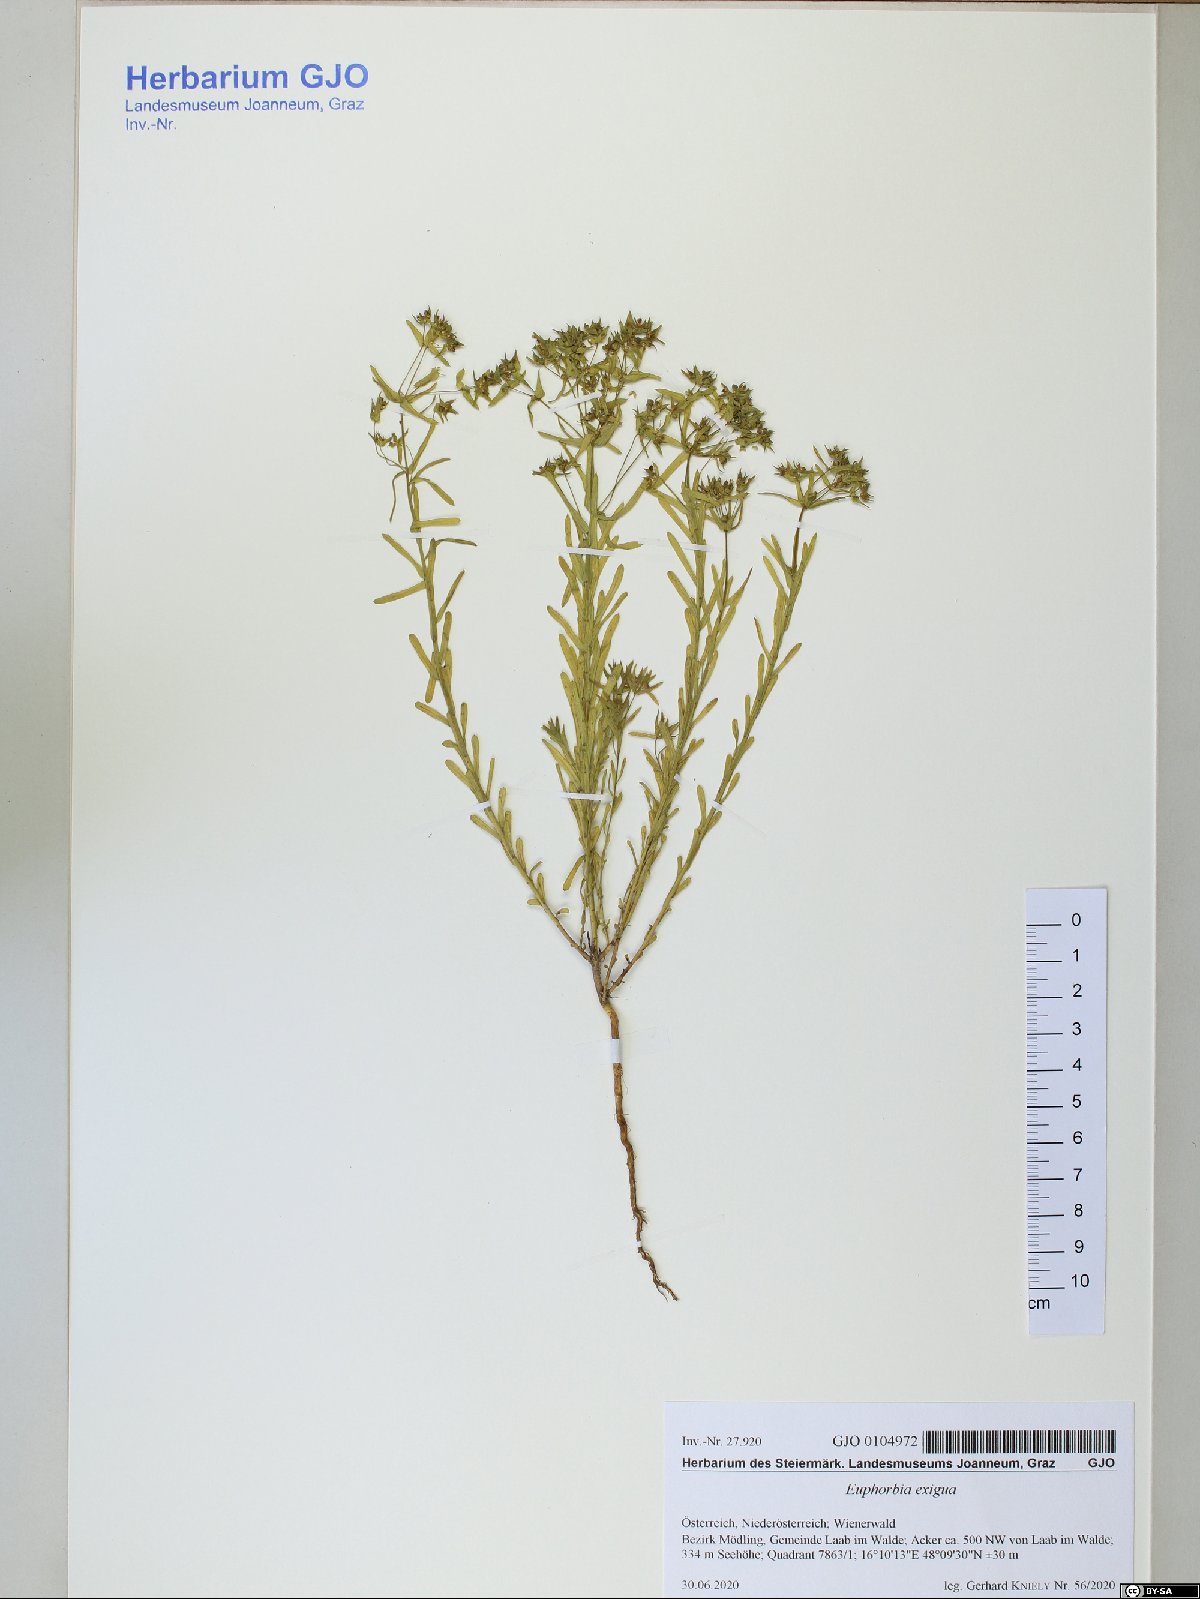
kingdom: Plantae
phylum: Tracheophyta
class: Magnoliopsida
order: Malpighiales
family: Euphorbiaceae
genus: Euphorbia
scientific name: Euphorbia exigua
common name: Dwarf spurge
